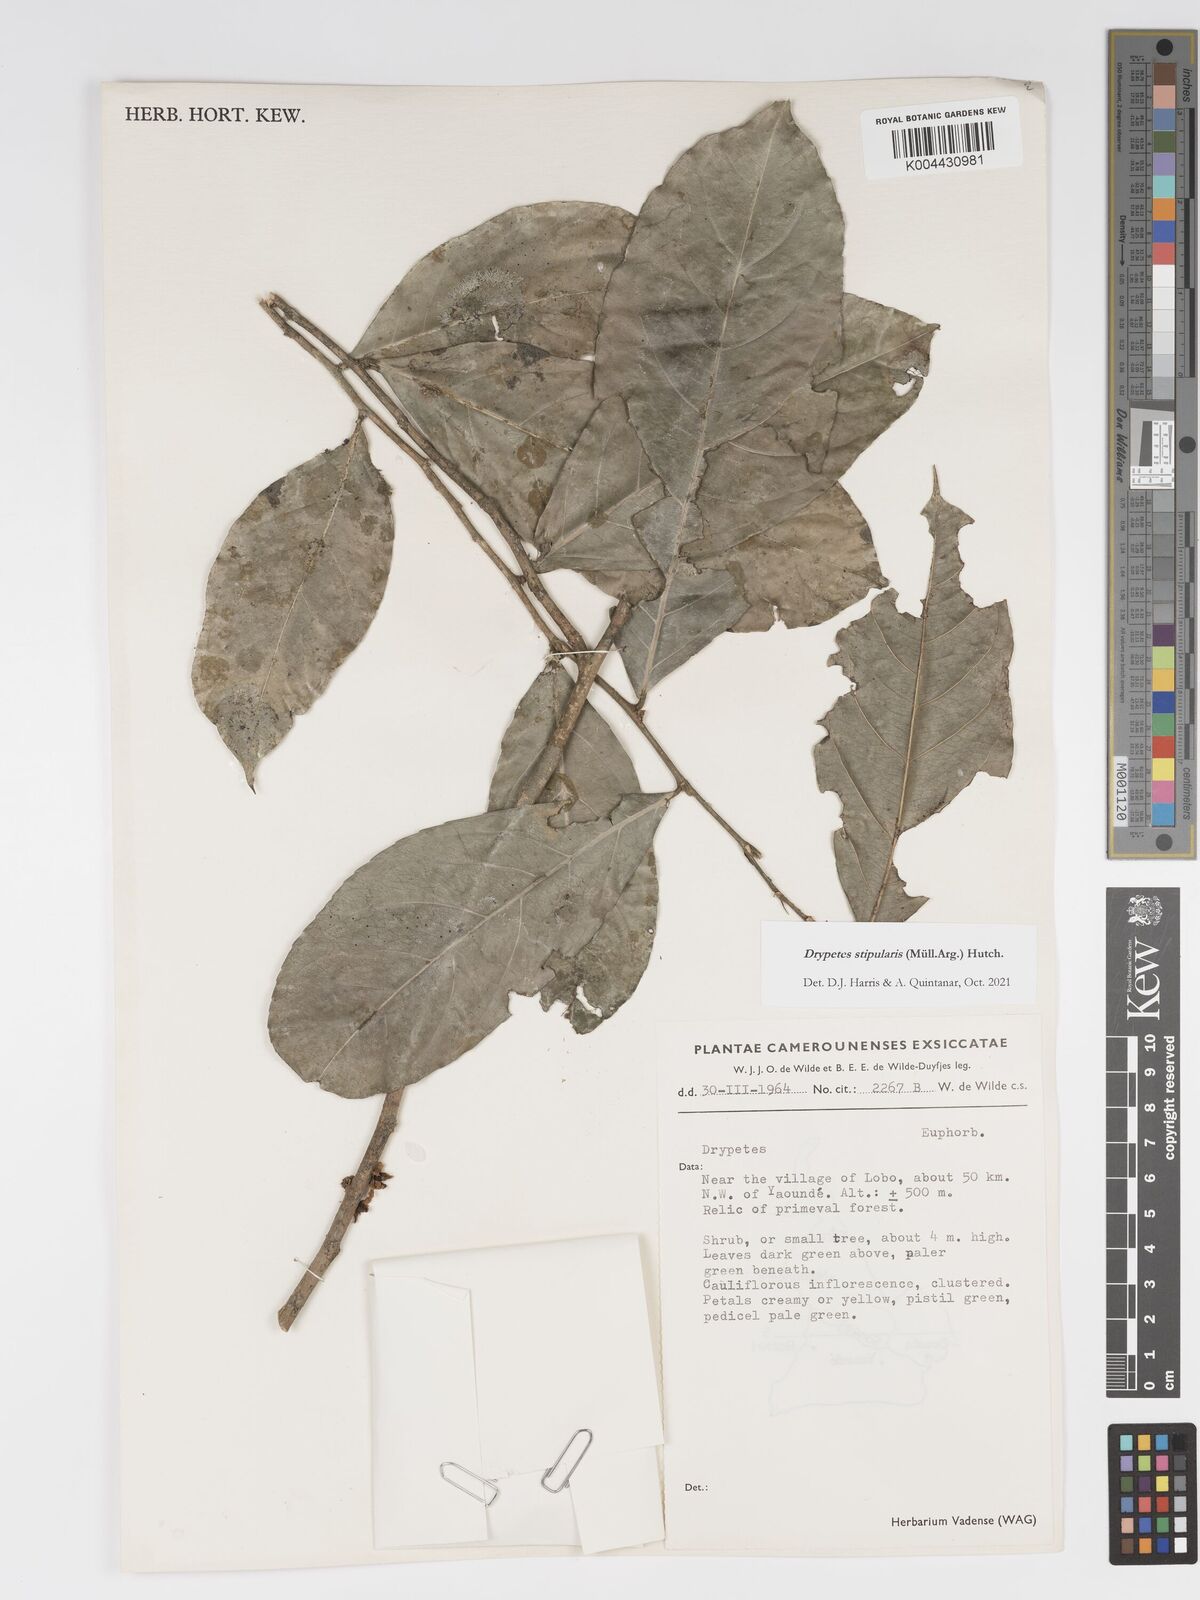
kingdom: Plantae
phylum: Tracheophyta
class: Magnoliopsida
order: Malpighiales
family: Putranjivaceae
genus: Drypetes
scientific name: Drypetes stipularis
